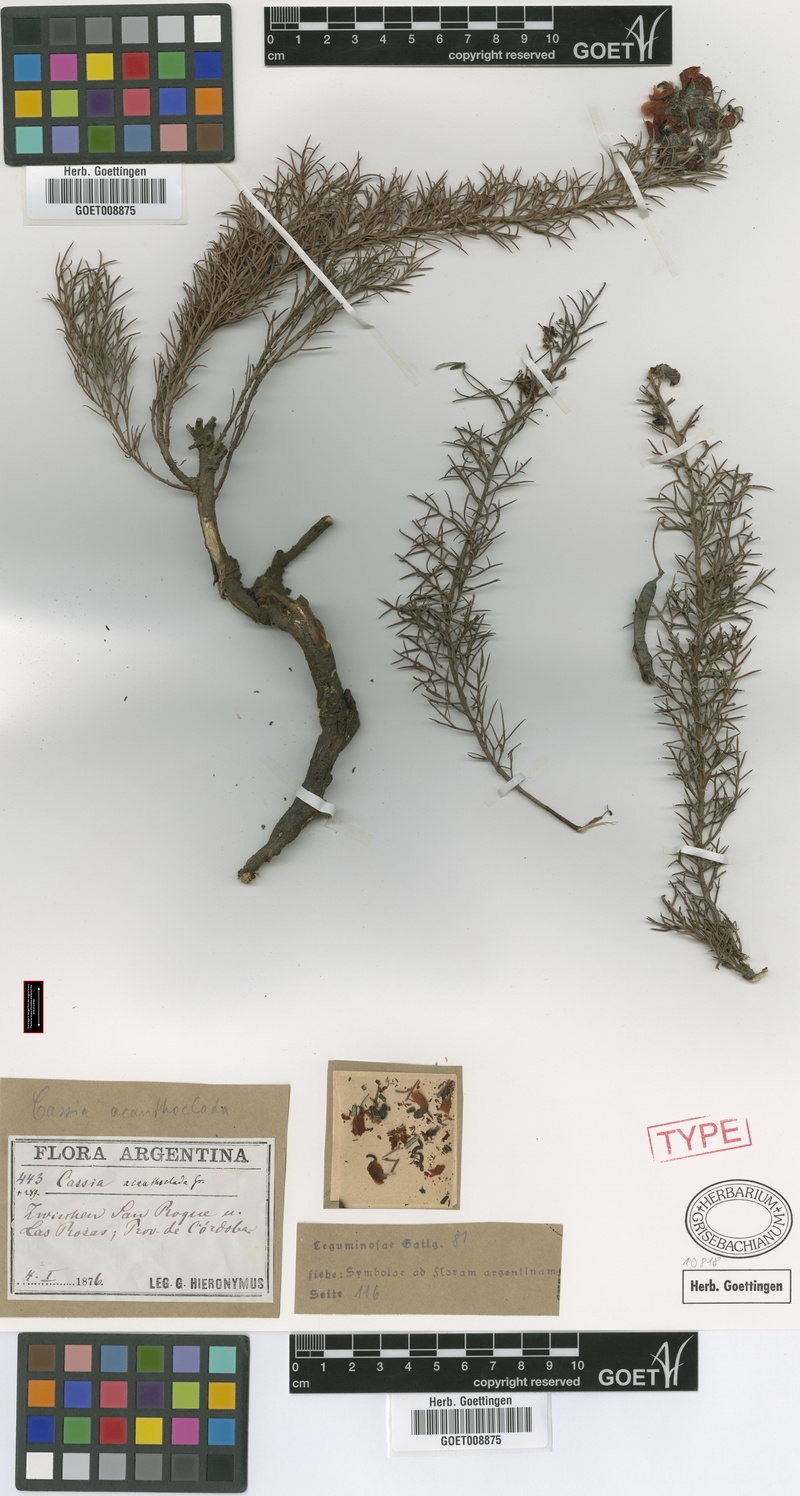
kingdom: Plantae
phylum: Tracheophyta
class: Magnoliopsida
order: Fabales
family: Fabaceae
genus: Senna
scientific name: Senna acanthoclada
